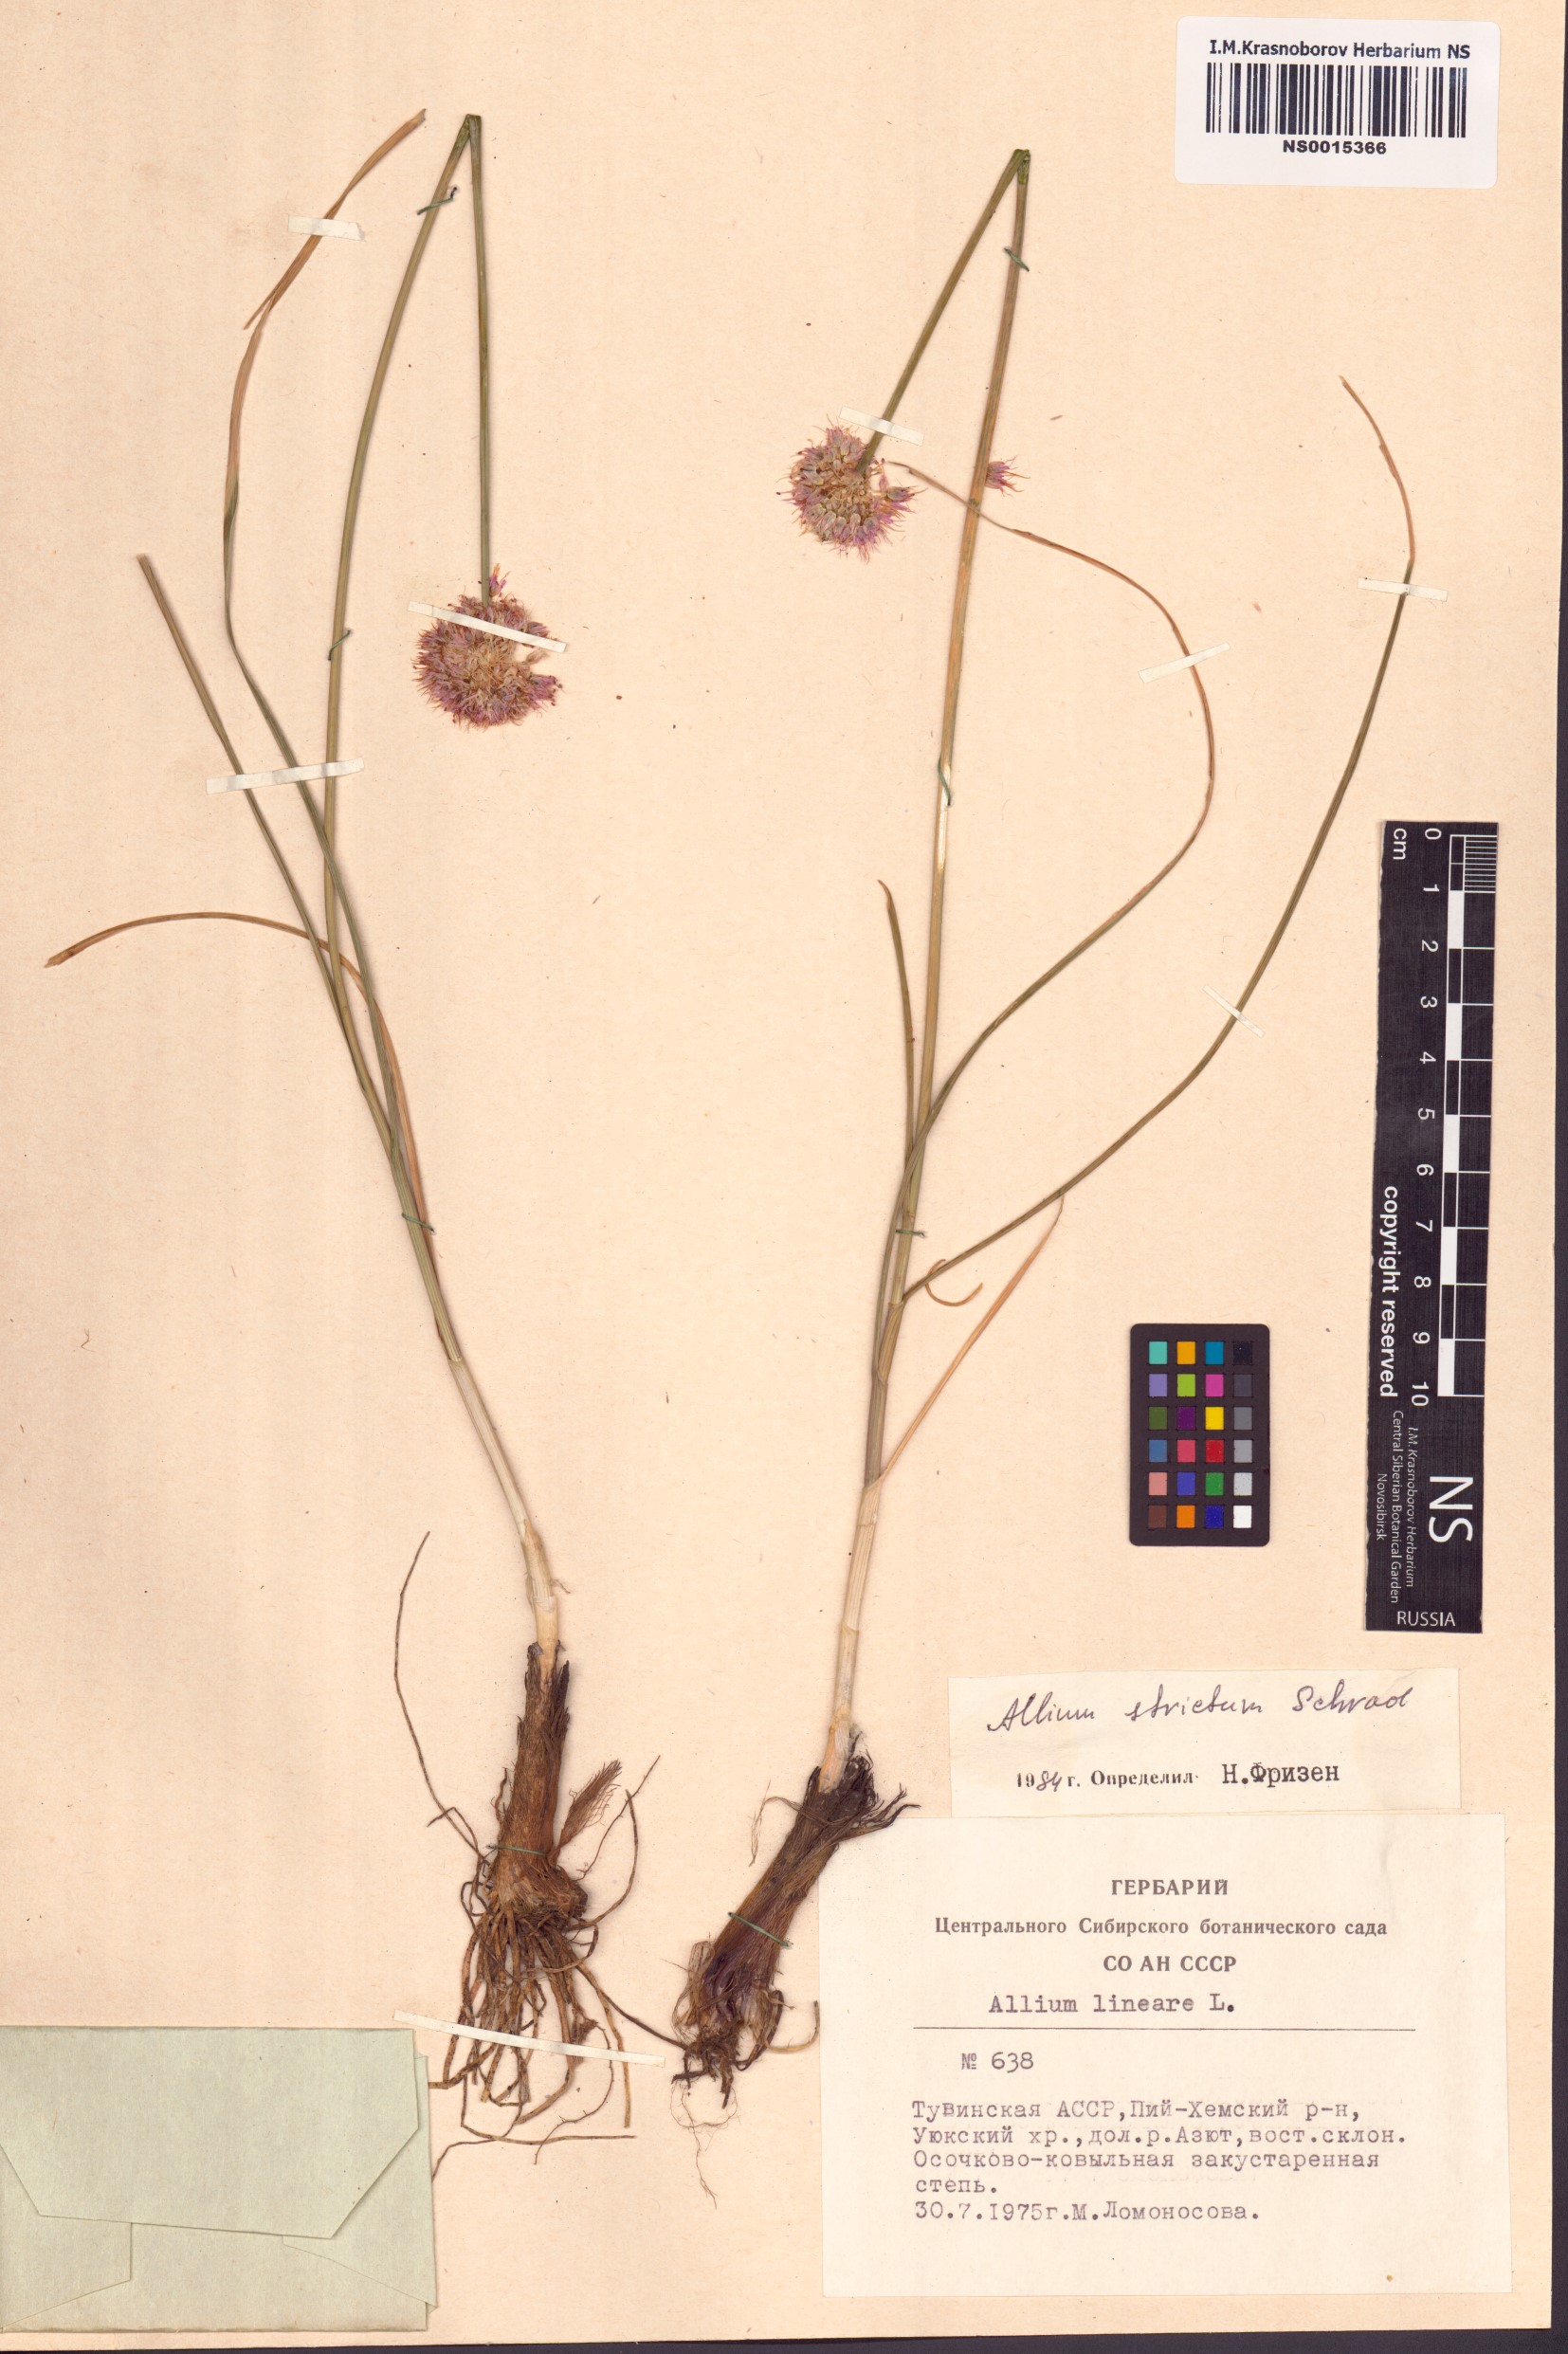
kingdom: Plantae
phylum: Tracheophyta
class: Liliopsida
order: Asparagales
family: Amaryllidaceae
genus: Allium
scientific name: Allium strictum
